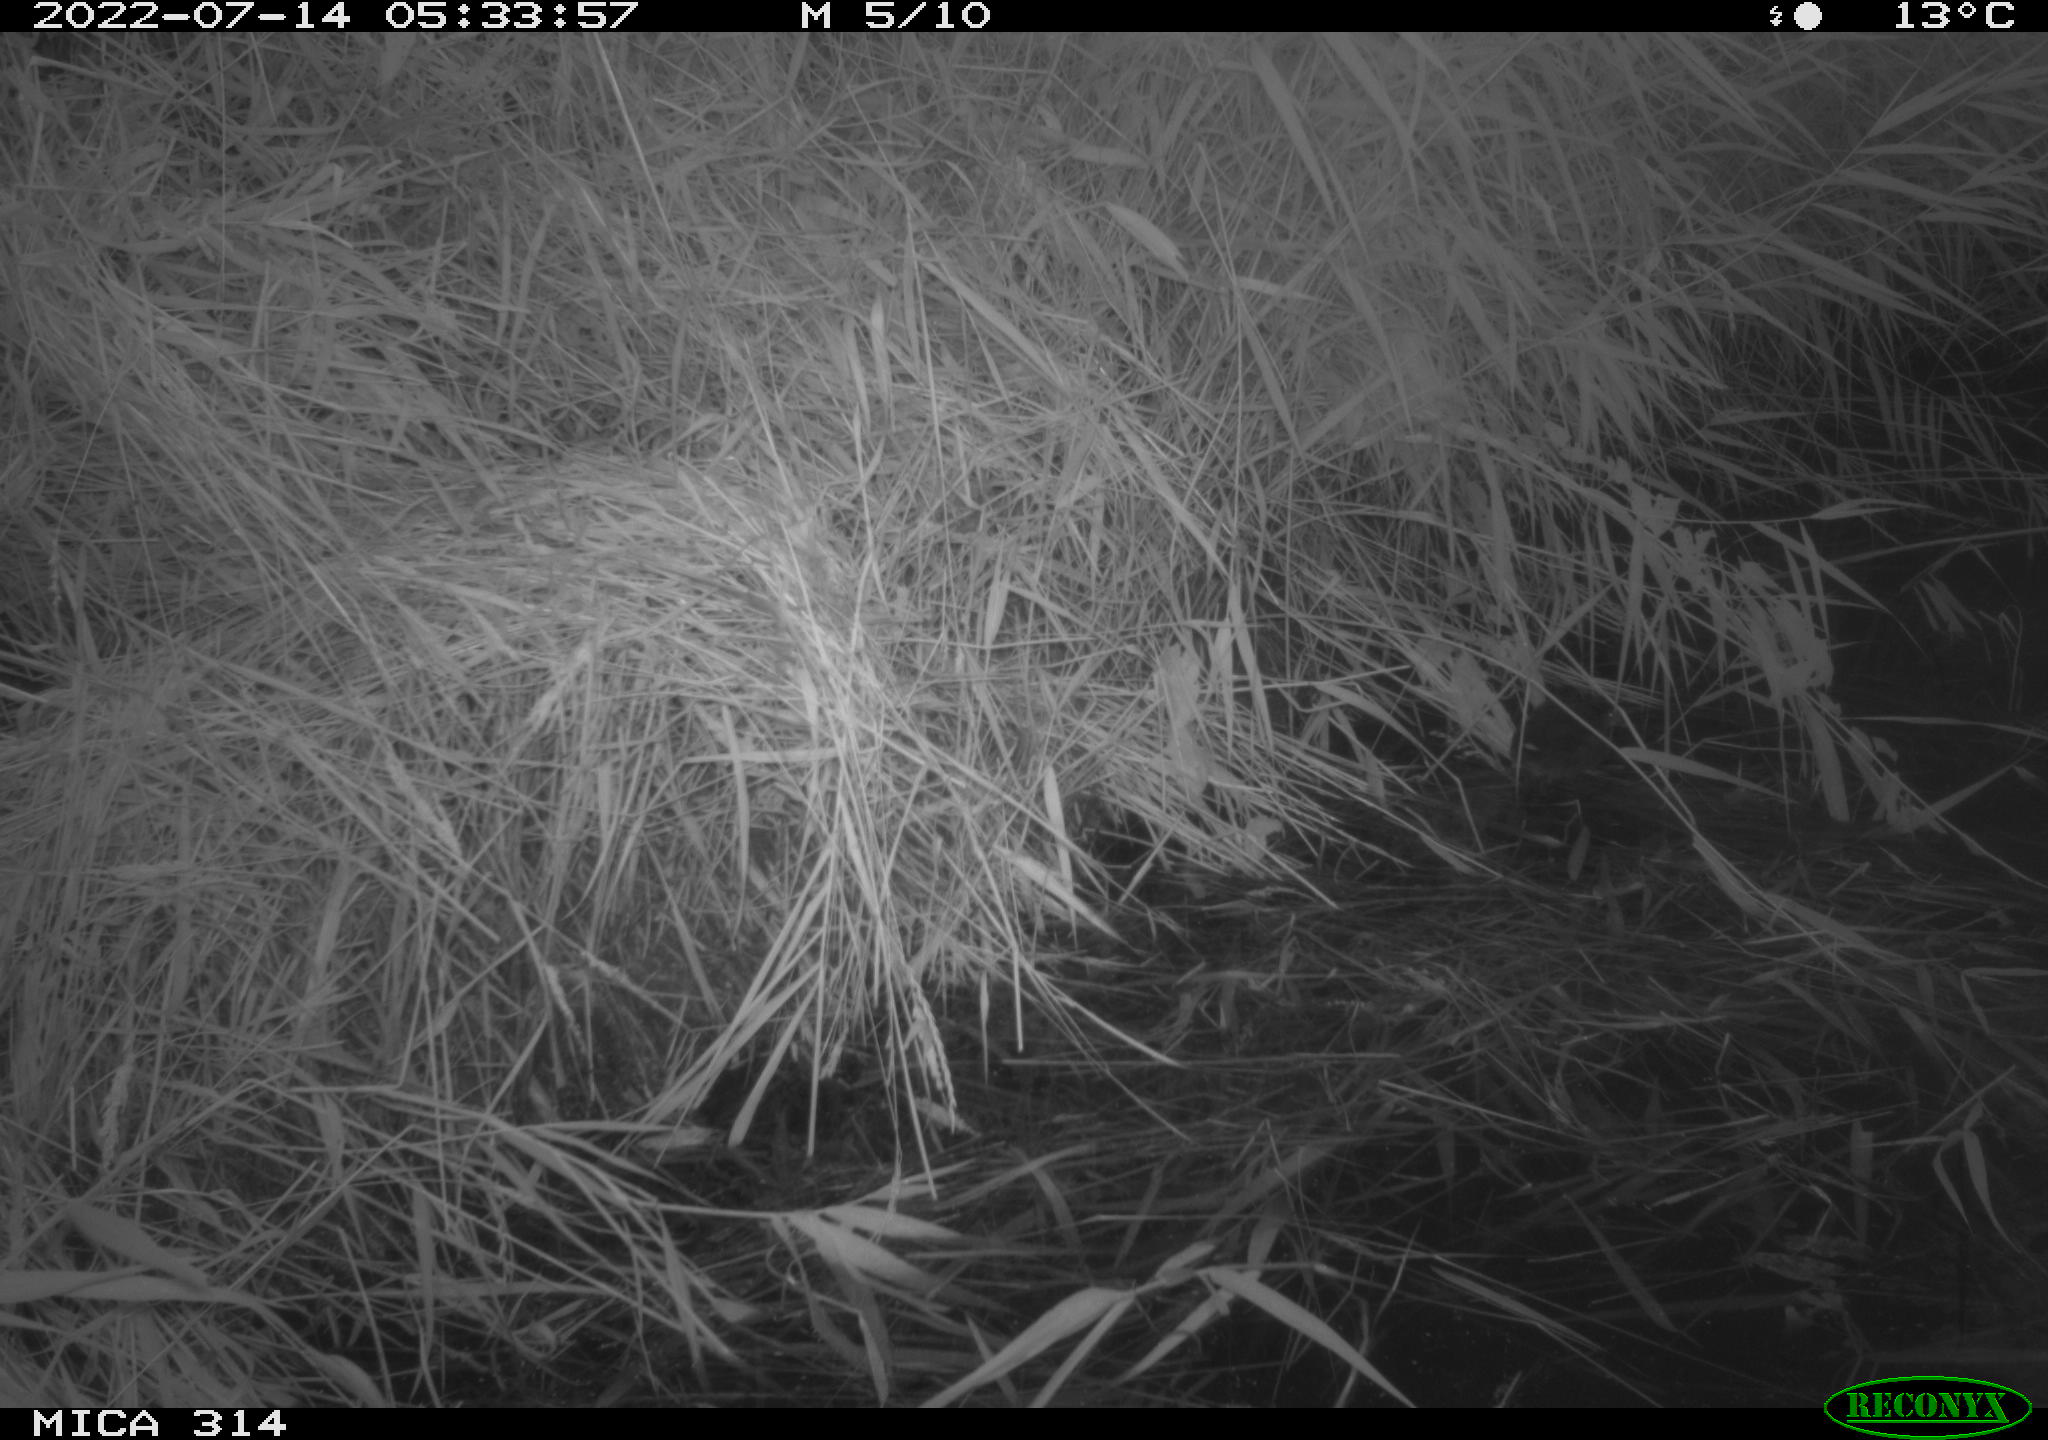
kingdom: Animalia
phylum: Chordata
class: Aves
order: Gruiformes
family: Rallidae
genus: Gallinula
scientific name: Gallinula chloropus
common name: Common moorhen
